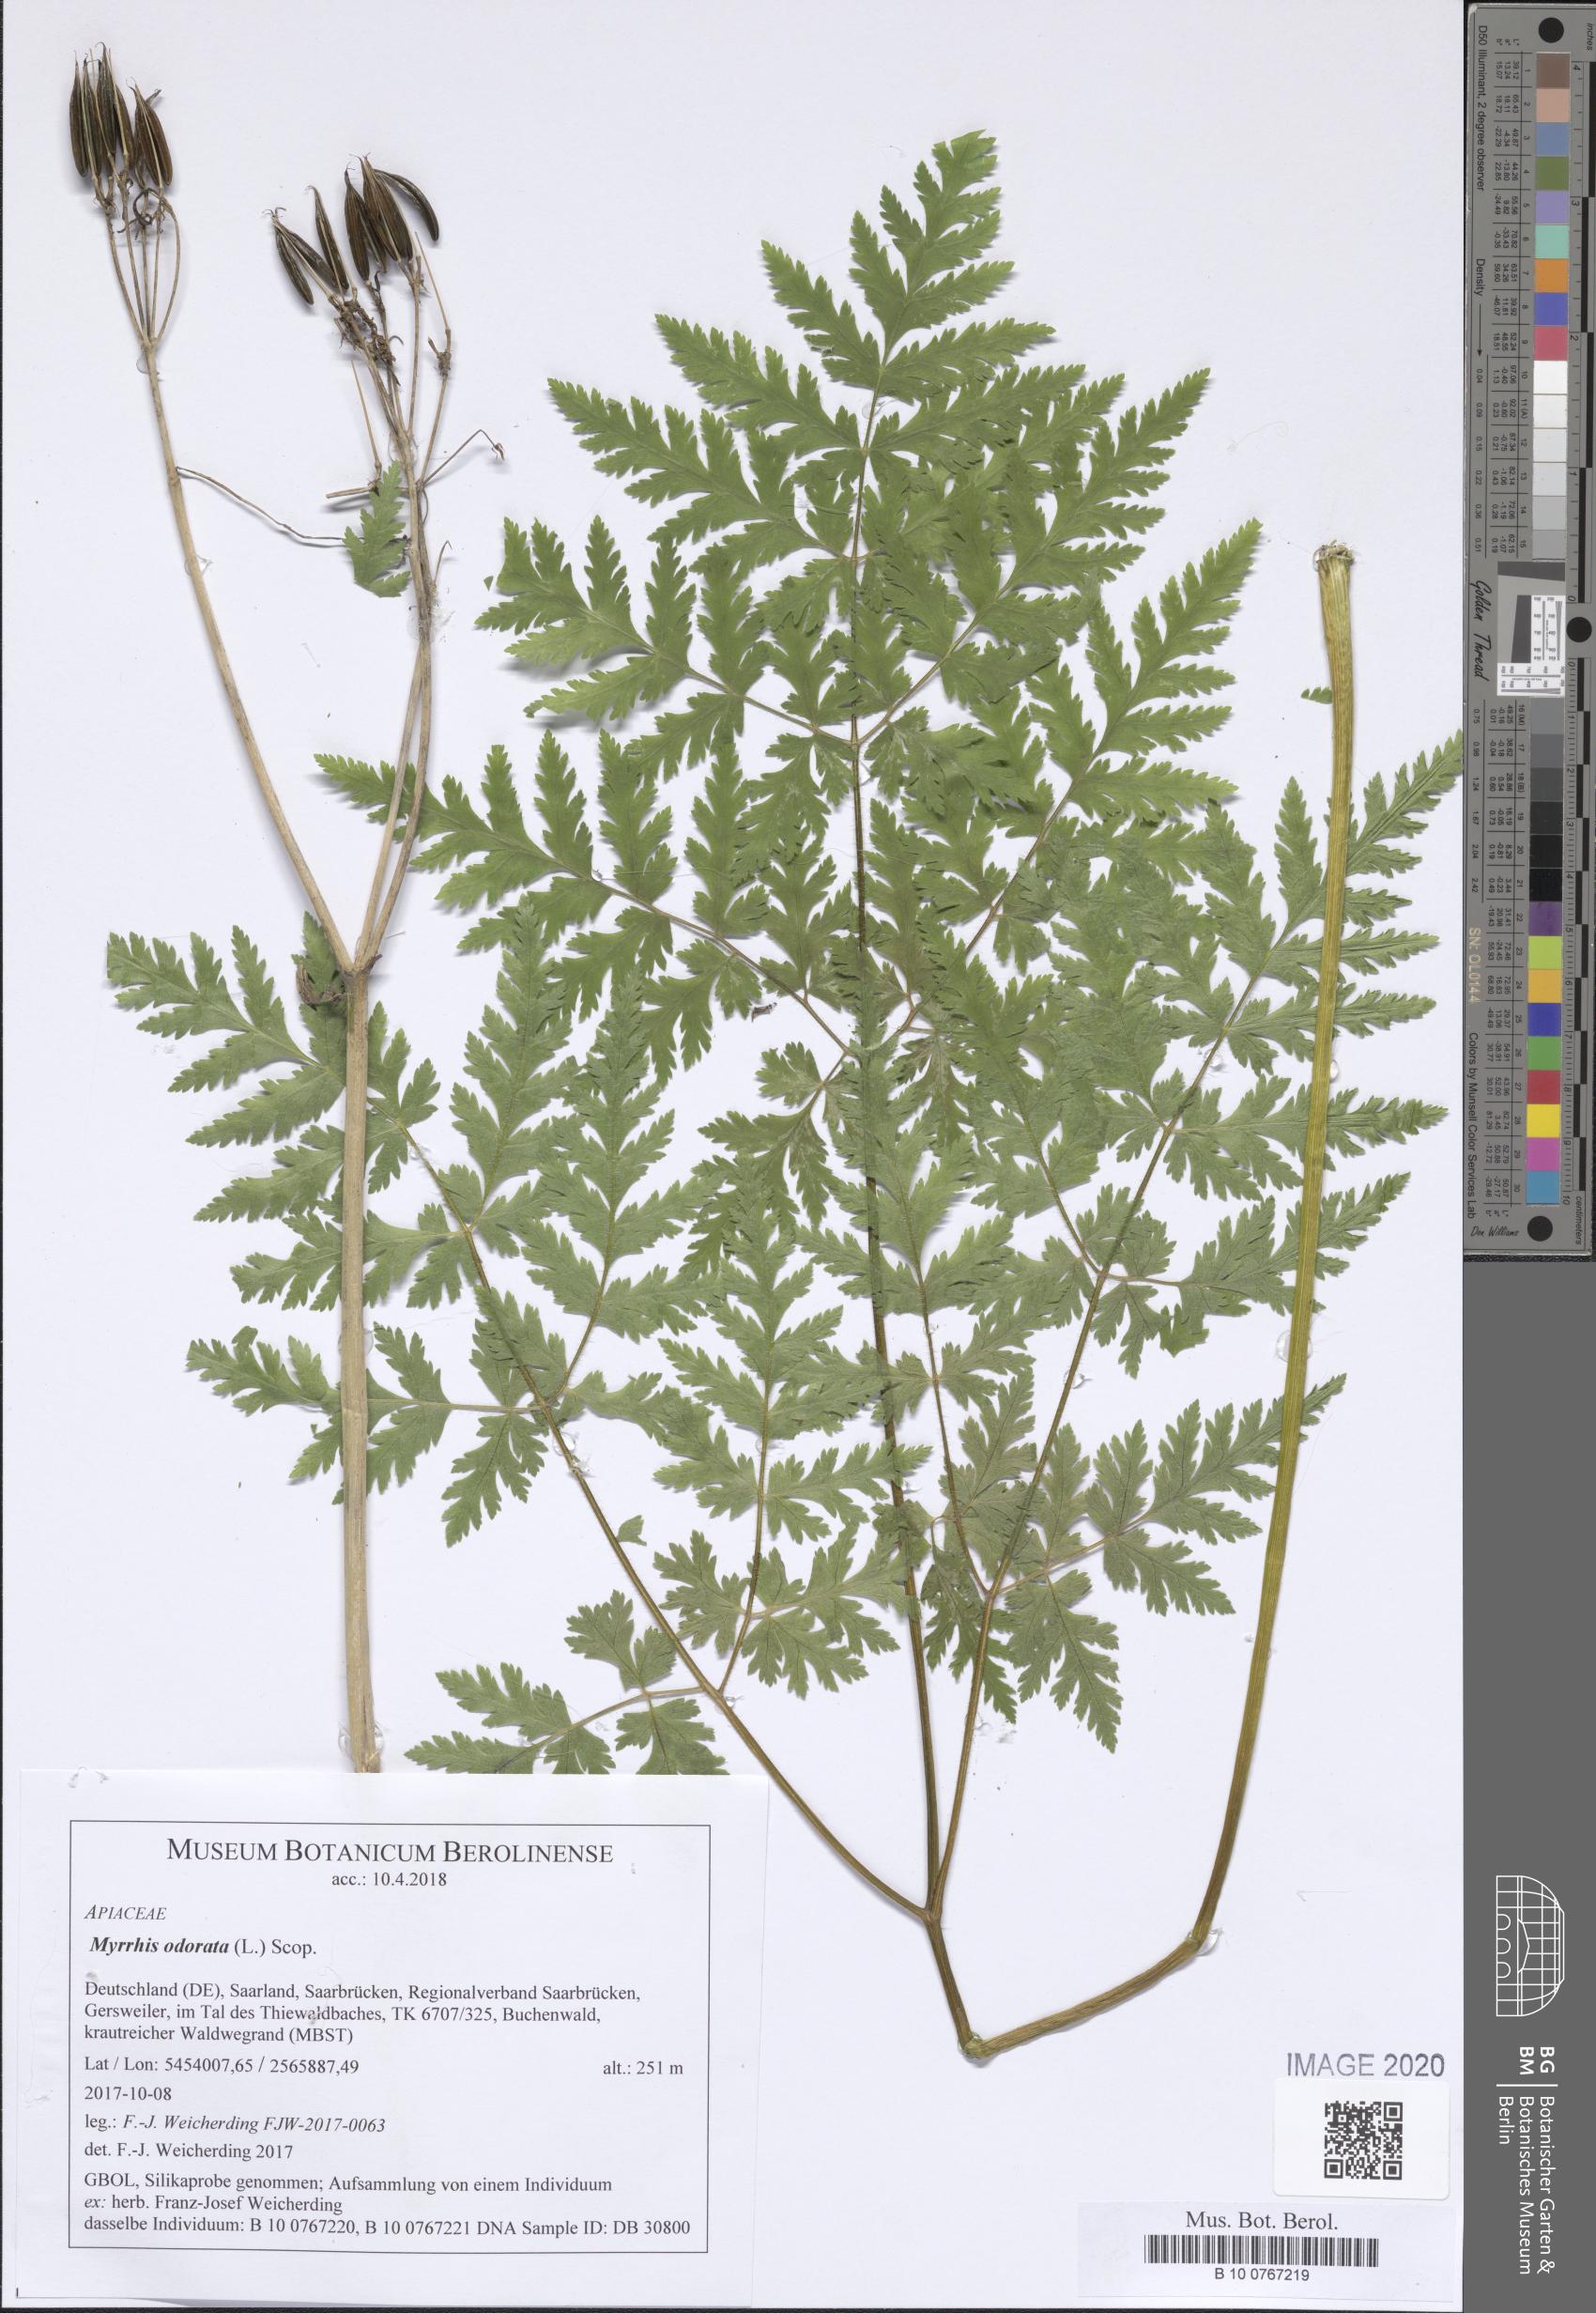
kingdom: Plantae
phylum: Tracheophyta
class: Magnoliopsida
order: Apiales
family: Apiaceae
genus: Myrrhis
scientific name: Myrrhis odorata
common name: Sweet cicely
